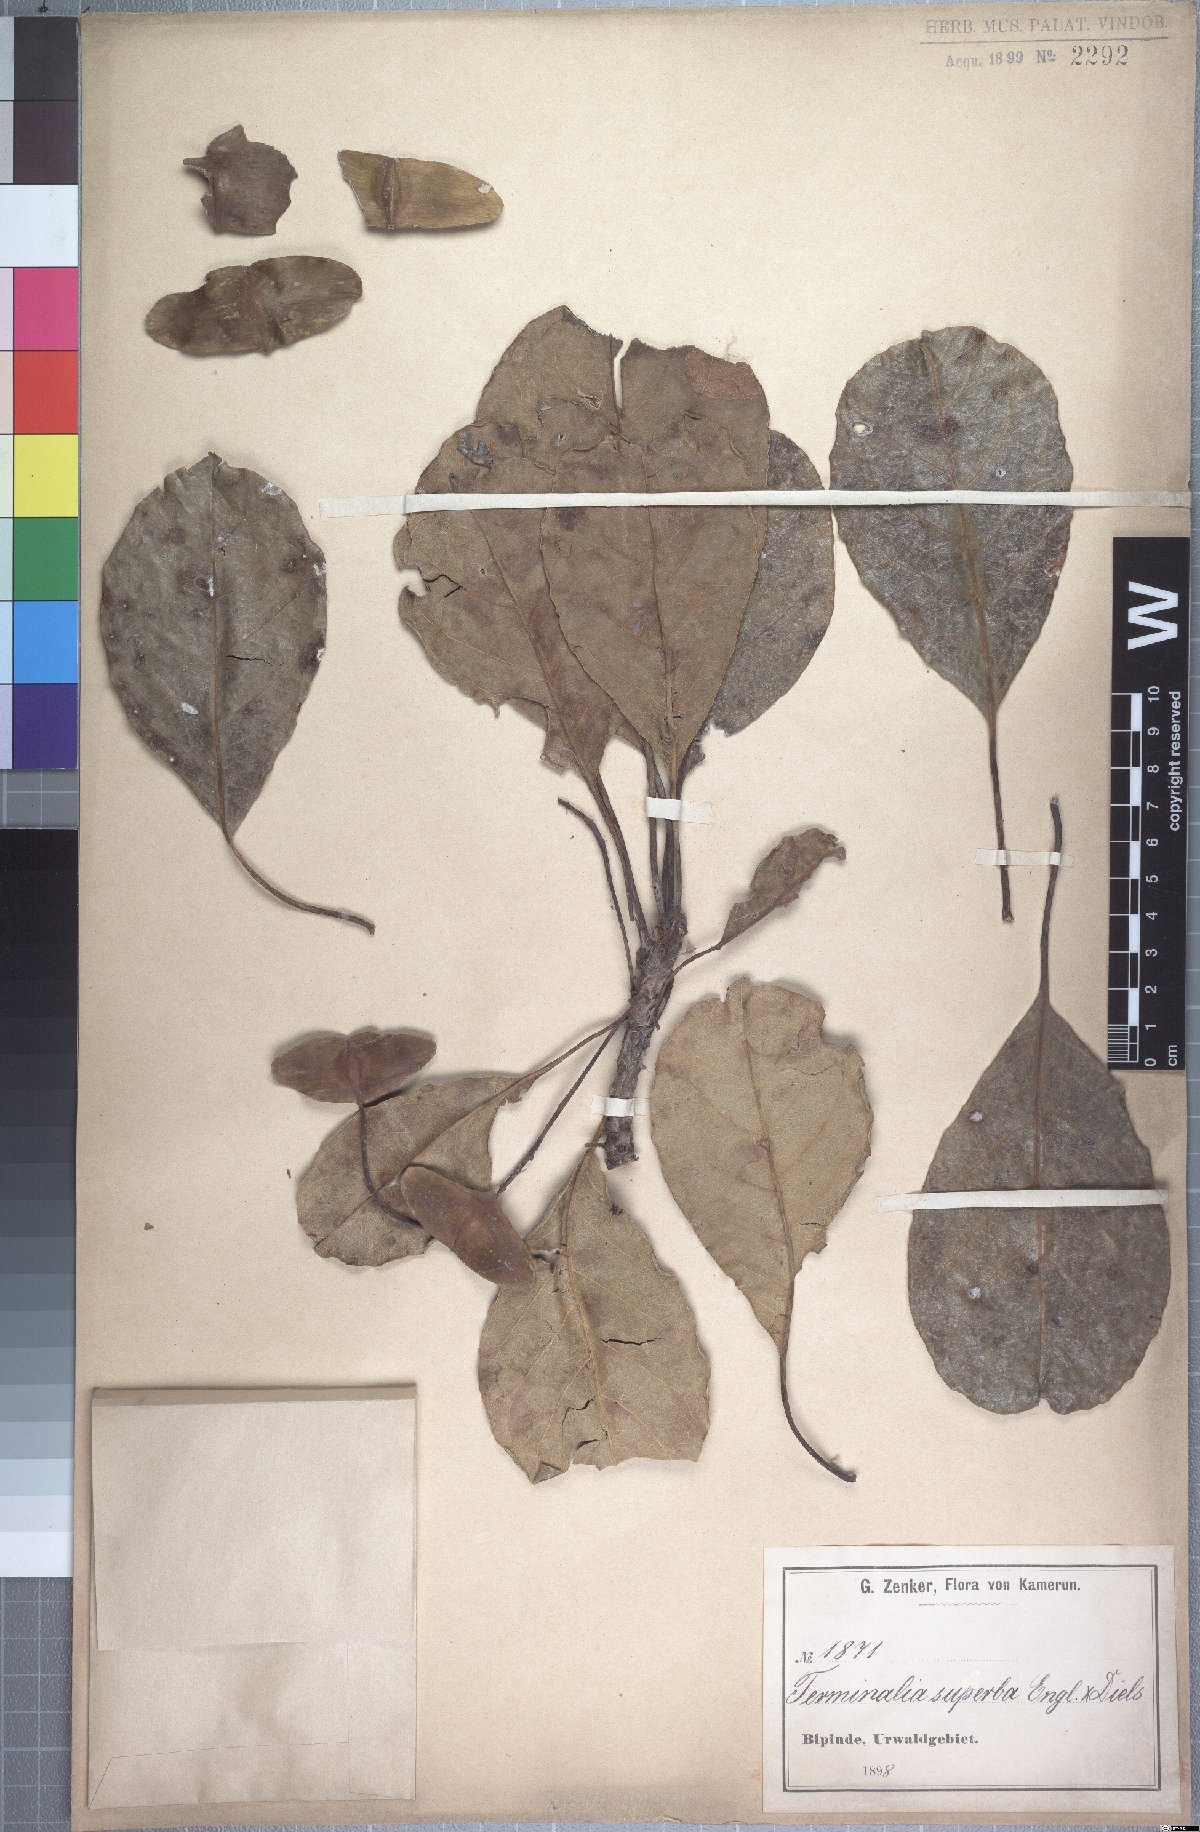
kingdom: Plantae
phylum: Tracheophyta
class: Magnoliopsida
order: Myrtales
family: Combretaceae
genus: Terminalia
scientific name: Terminalia superba
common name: White afara
